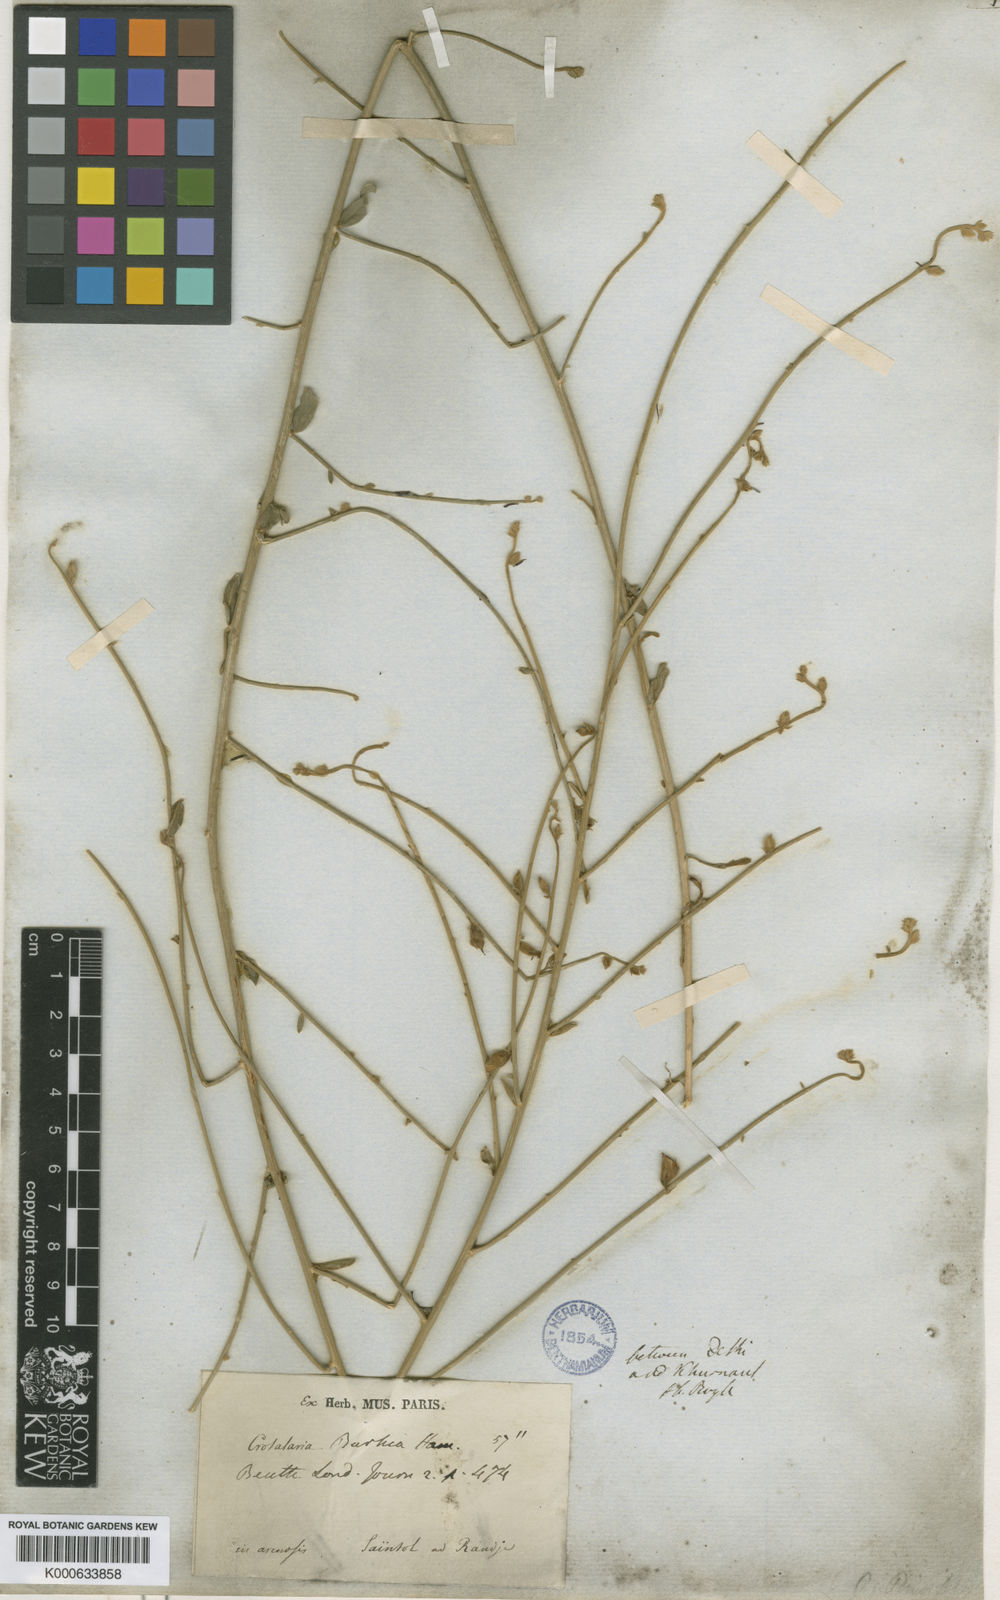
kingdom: Plantae
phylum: Tracheophyta
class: Magnoliopsida
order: Fabales
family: Fabaceae
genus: Crotalaria
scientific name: Crotalaria burhia
